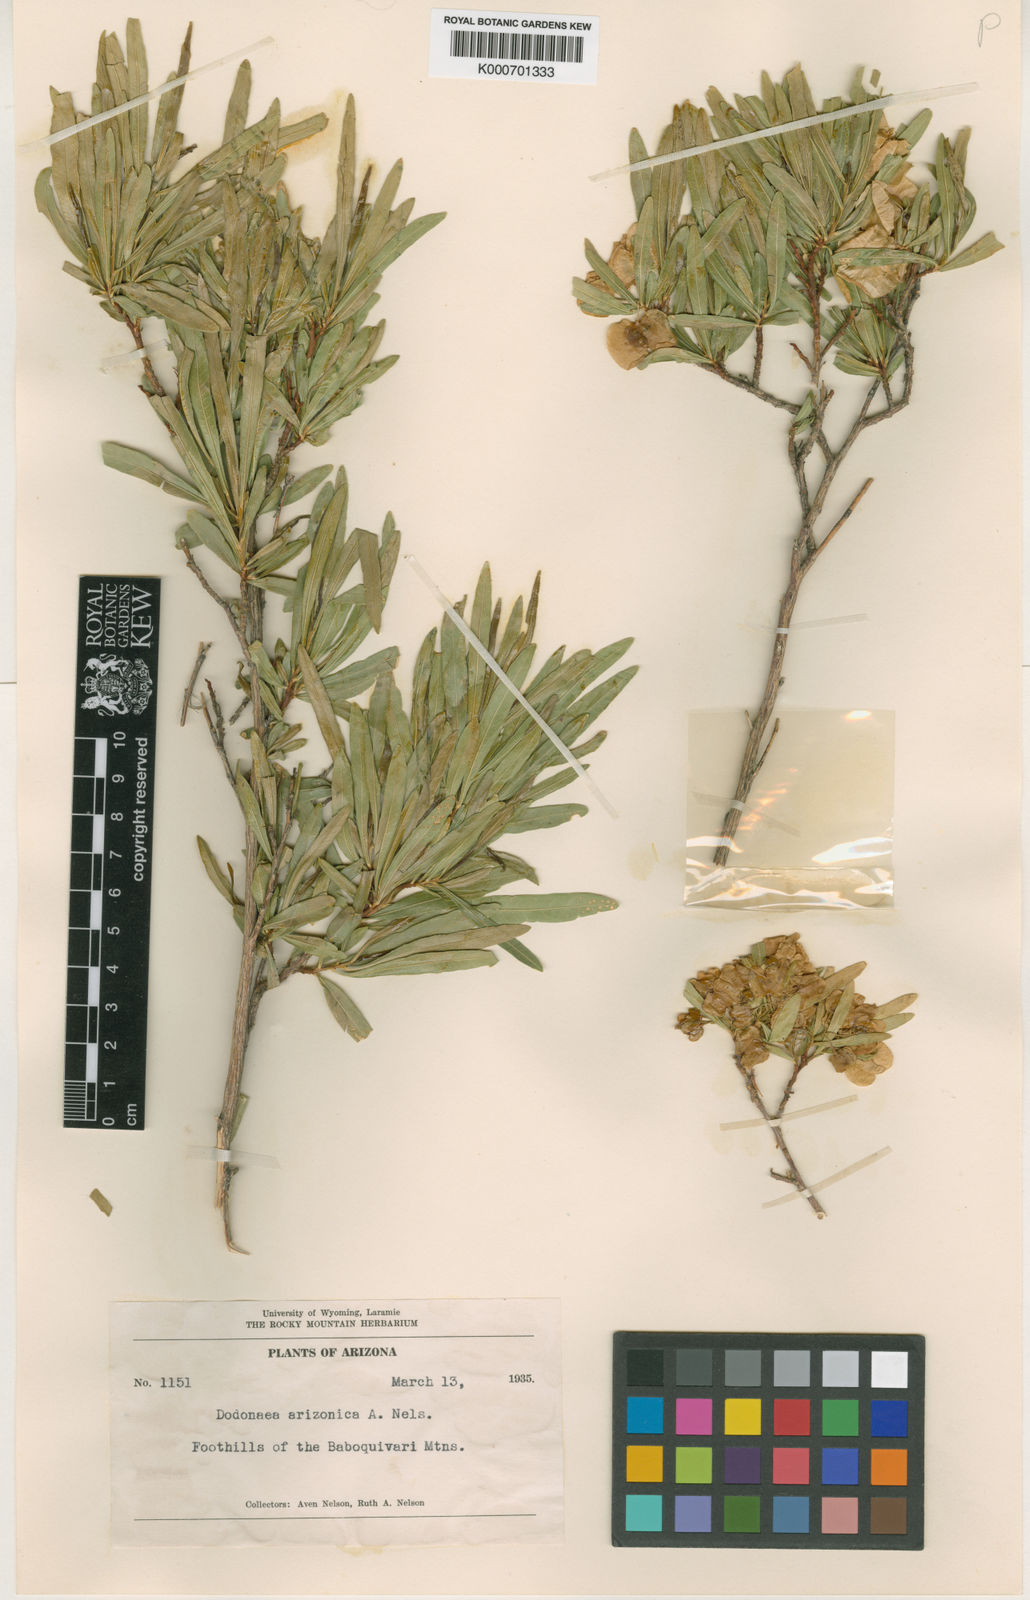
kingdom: Plantae
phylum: Tracheophyta
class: Magnoliopsida
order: Sapindales
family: Sapindaceae
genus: Dodonaea
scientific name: Dodonaea viscosa
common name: Hopbush
